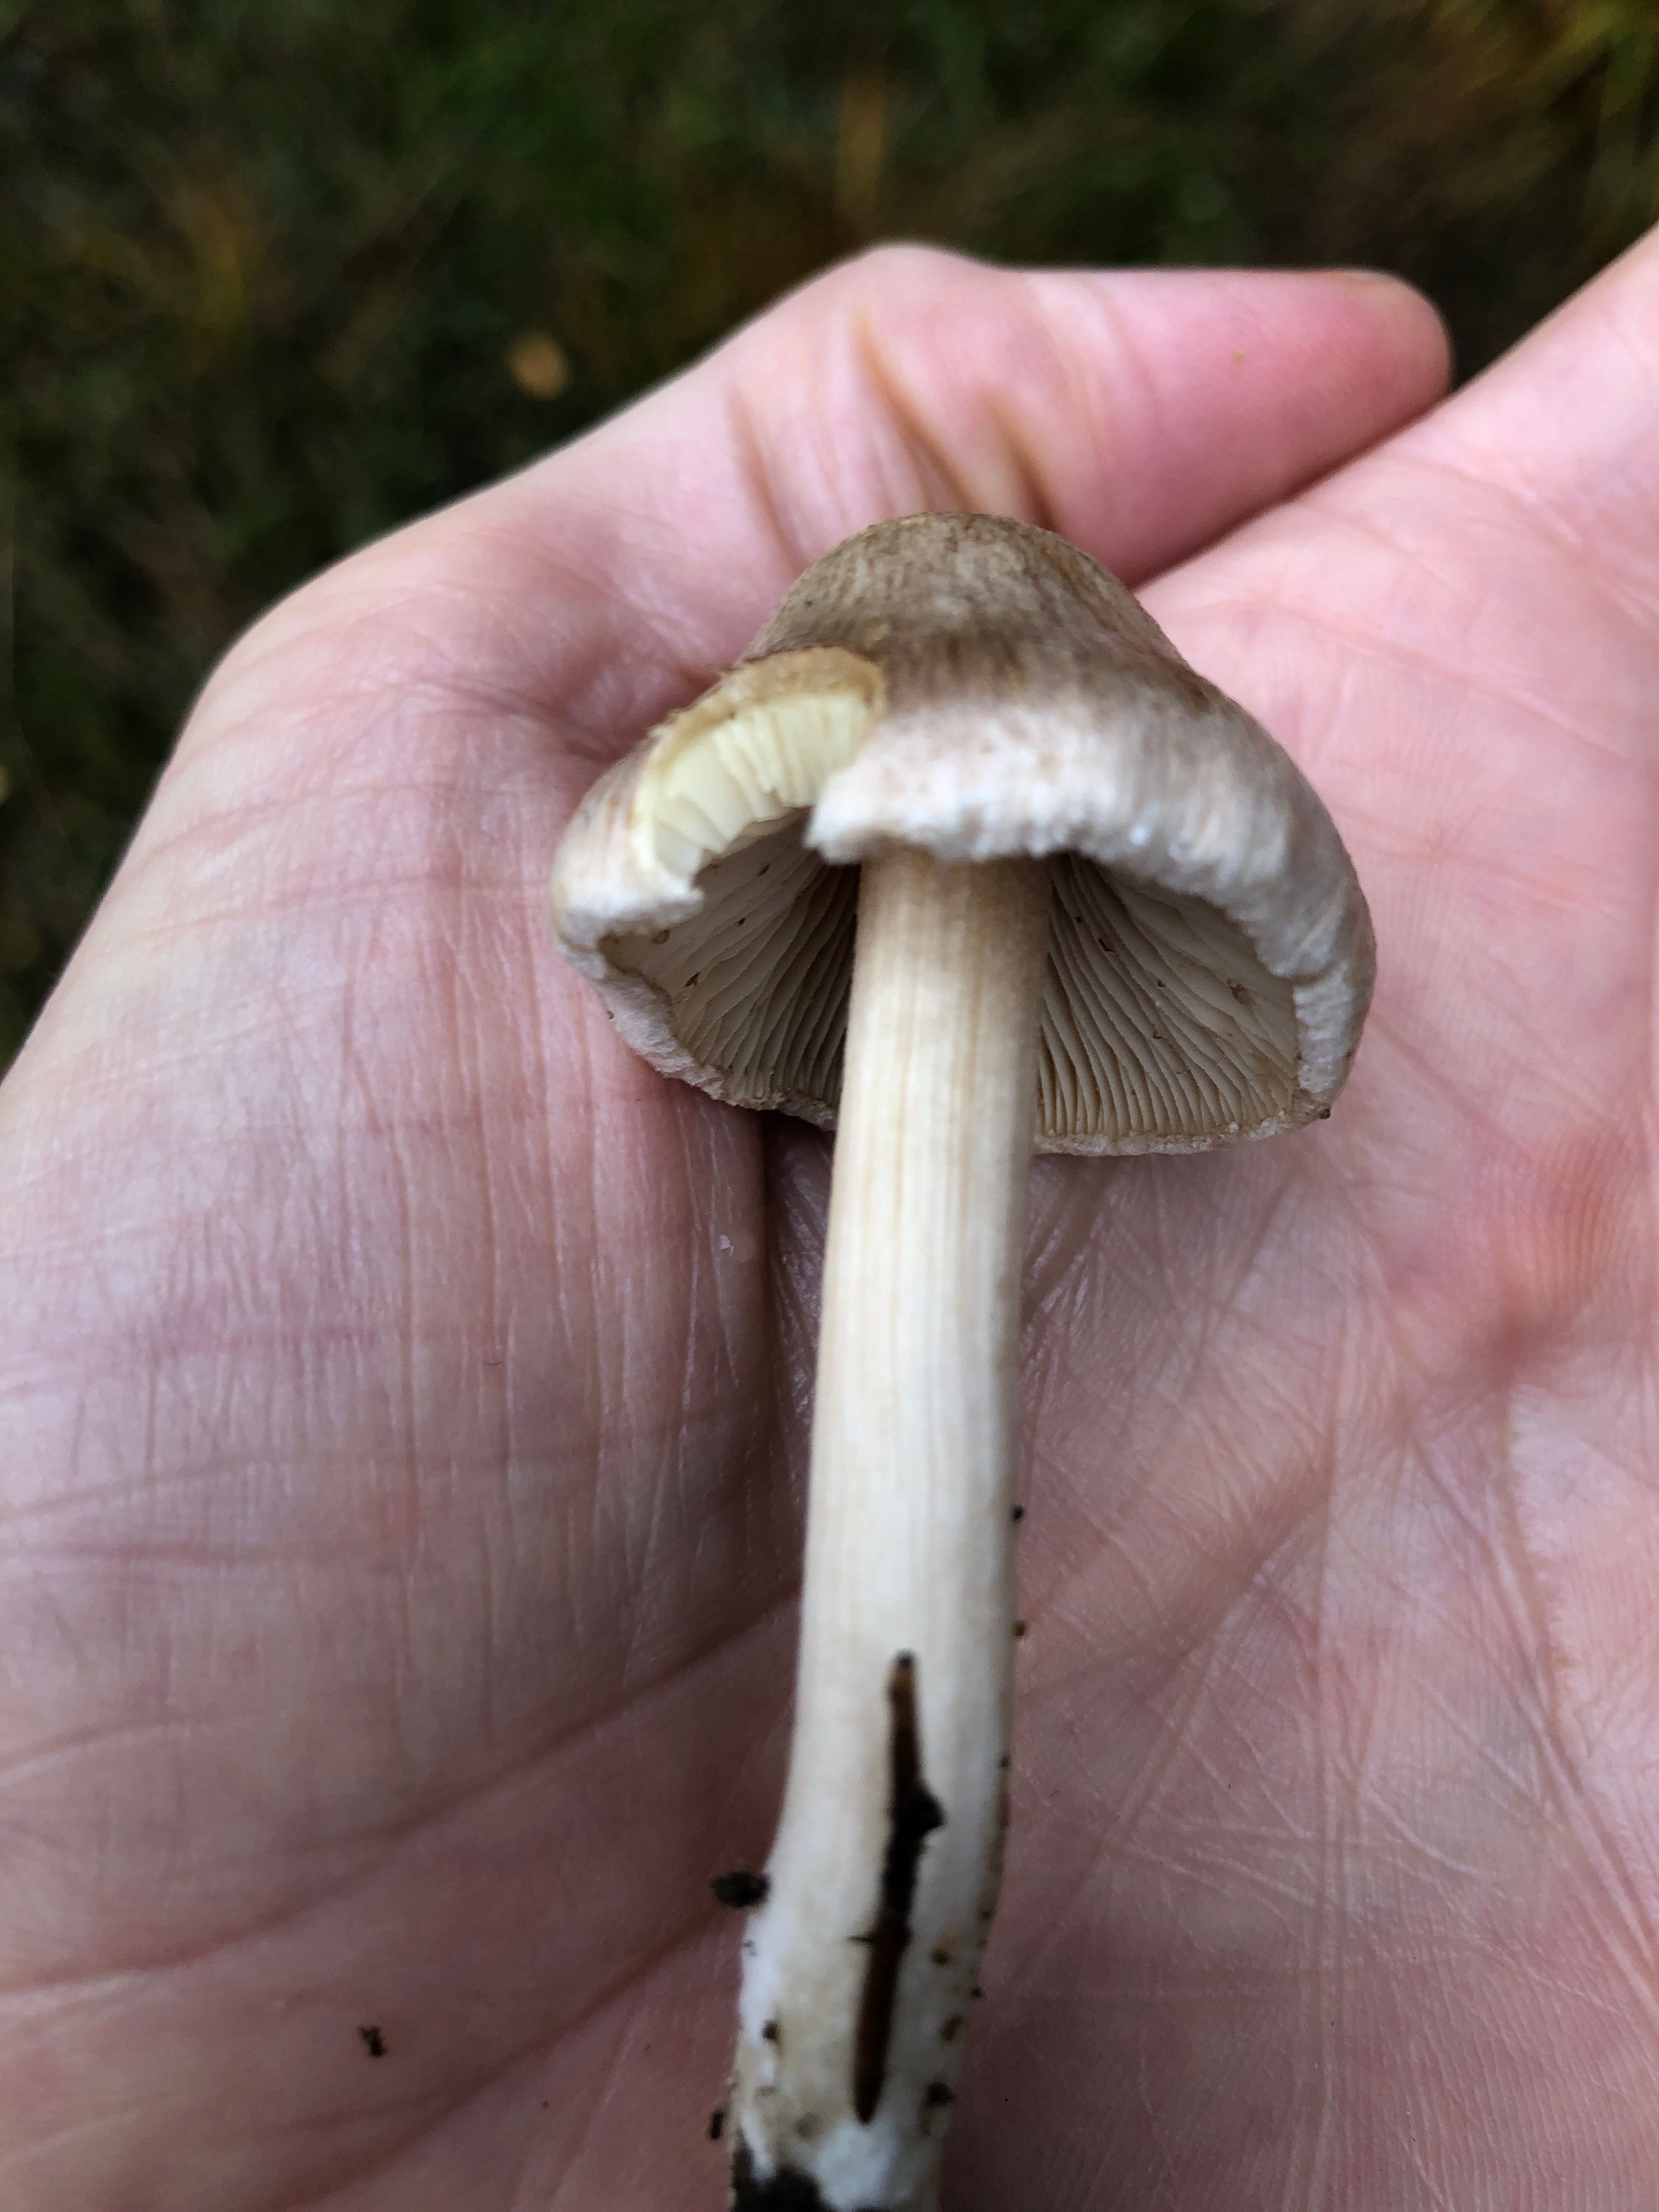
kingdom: Fungi
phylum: Basidiomycota
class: Agaricomycetes
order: Agaricales
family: Inocybaceae
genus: Inocybe
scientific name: Inocybe
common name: trævlhat
